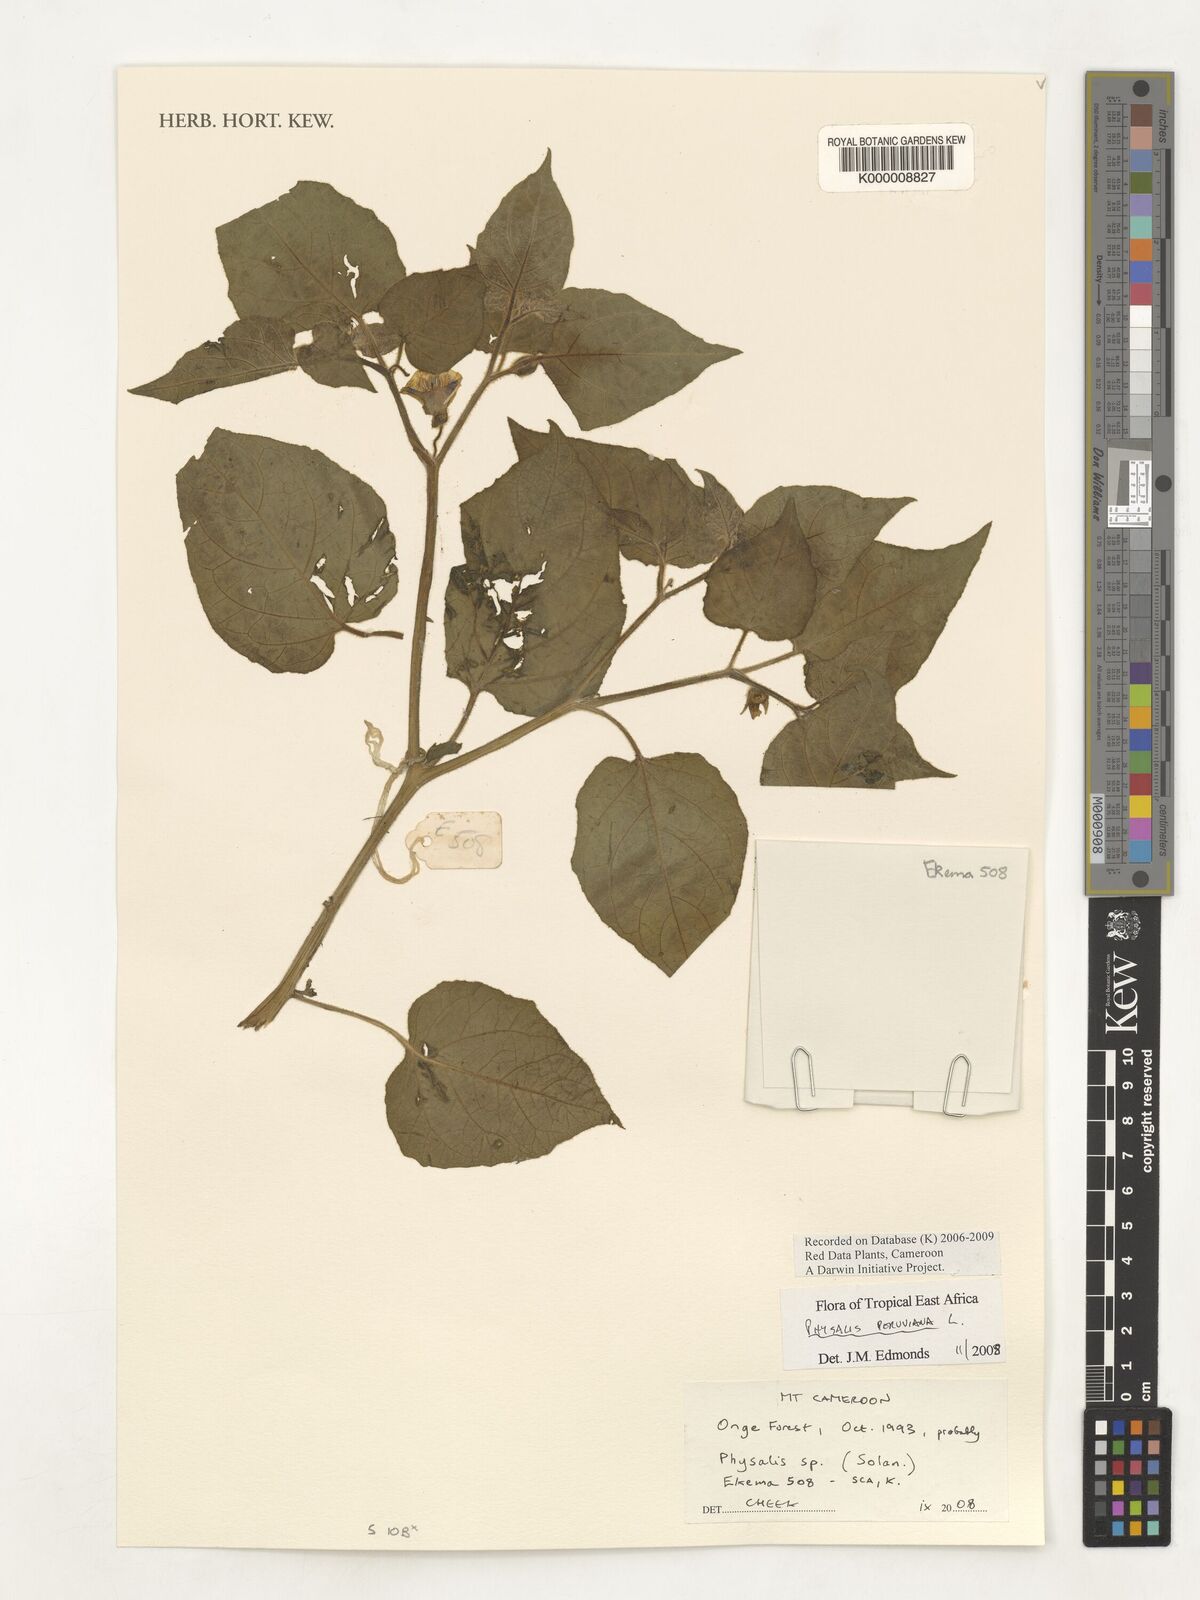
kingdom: Plantae
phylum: Tracheophyta
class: Magnoliopsida
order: Solanales
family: Solanaceae
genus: Physalis
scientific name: Physalis peruviana
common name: Cape-gooseberry
